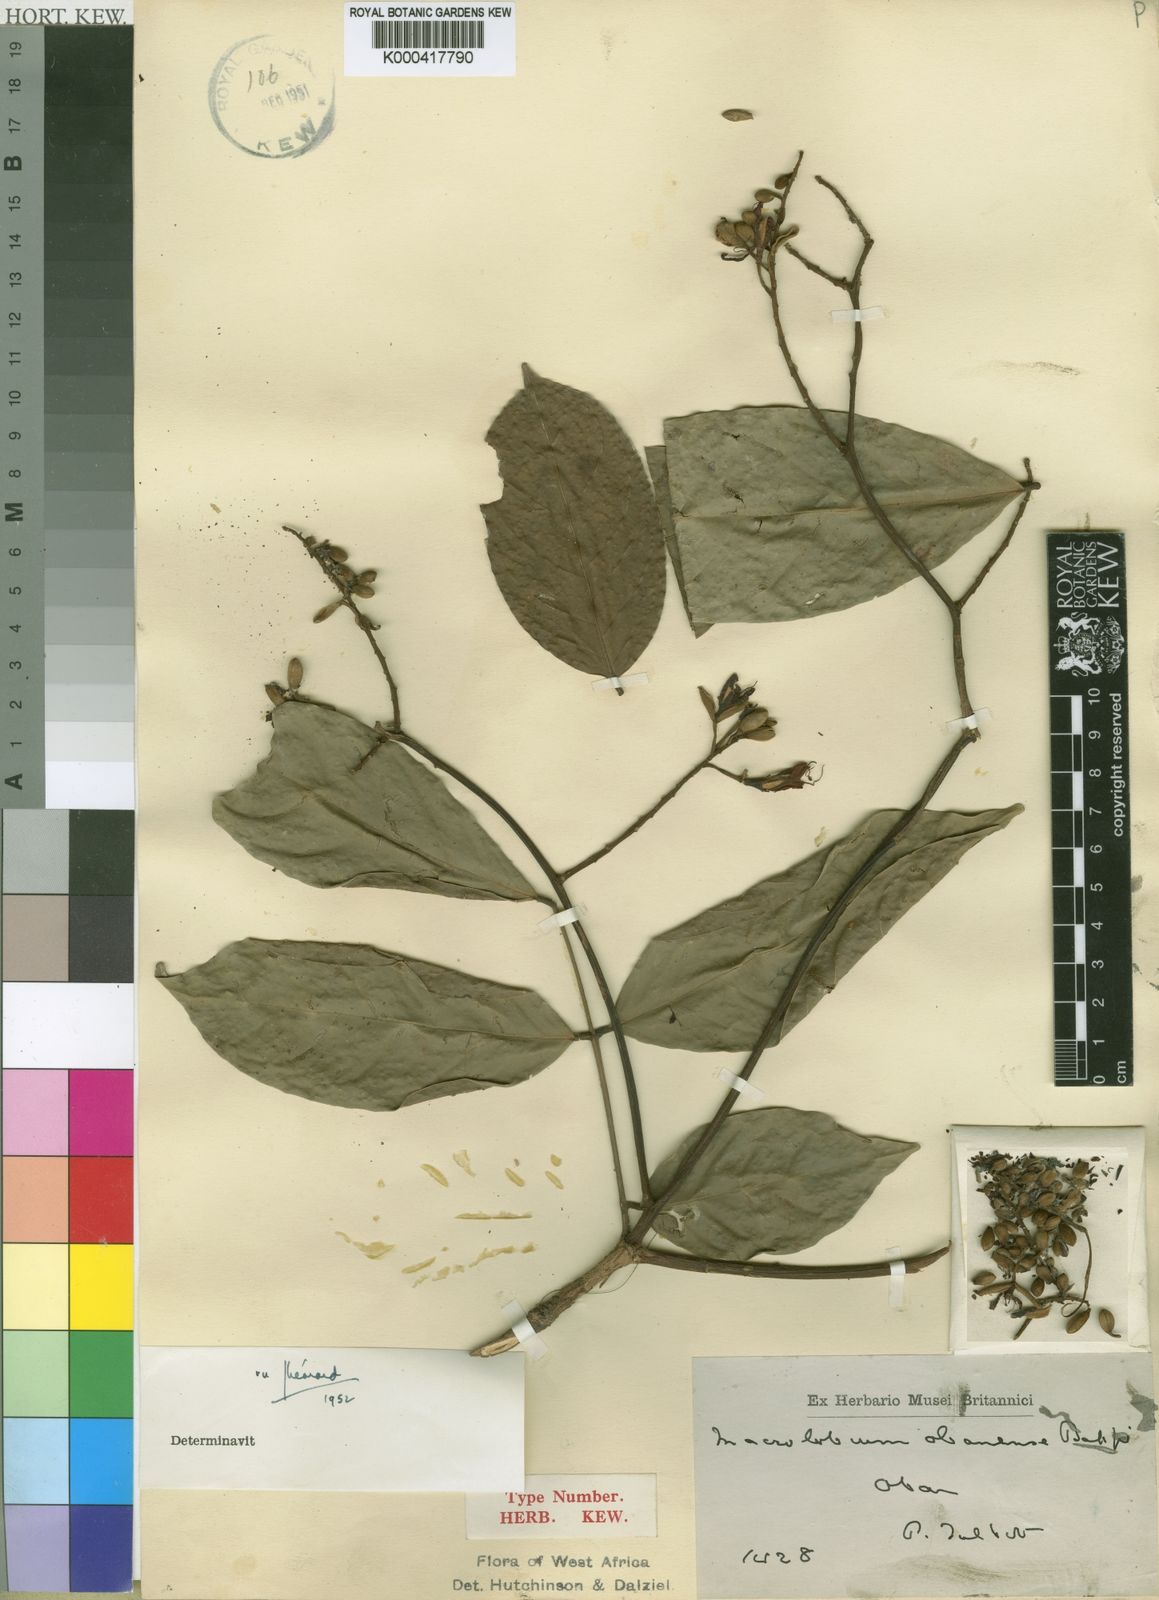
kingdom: Plantae
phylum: Tracheophyta
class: Magnoliopsida
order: Fabales
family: Fabaceae
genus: Englerodendron
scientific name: Englerodendron obanense
